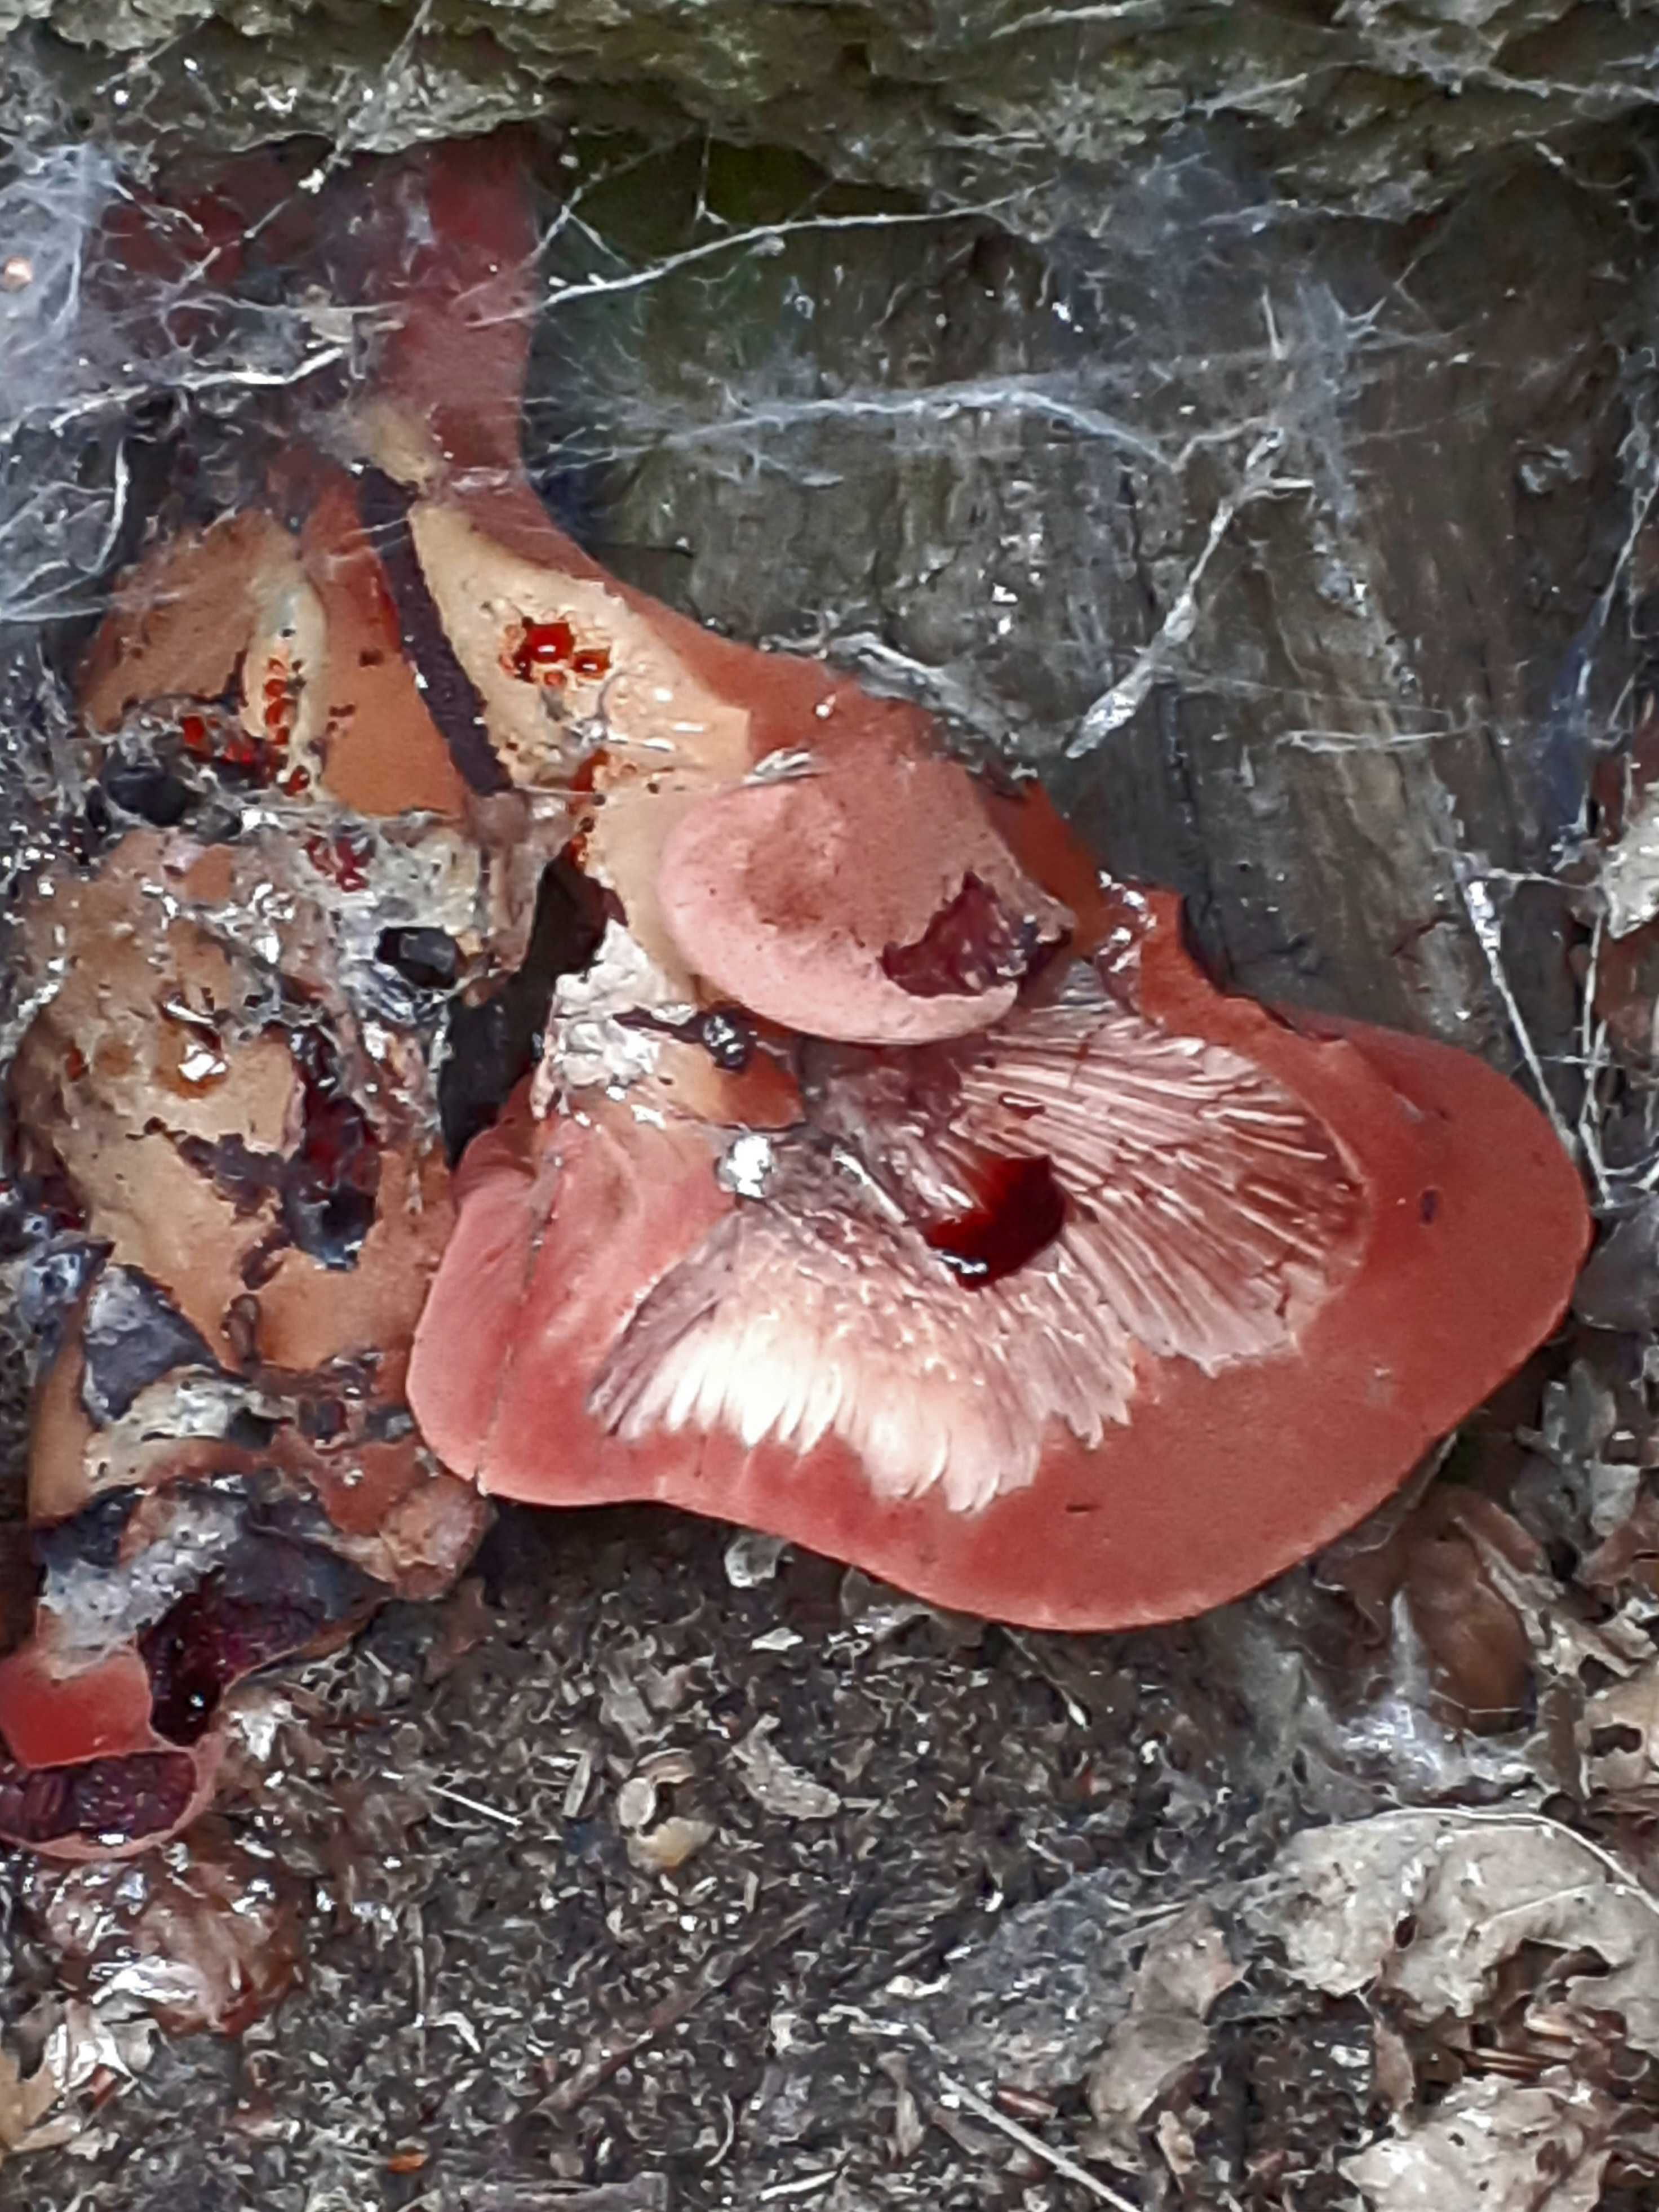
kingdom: Fungi
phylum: Basidiomycota
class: Agaricomycetes
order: Agaricales
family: Fistulinaceae
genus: Fistulina
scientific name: Fistulina hepatica
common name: oksetunge
